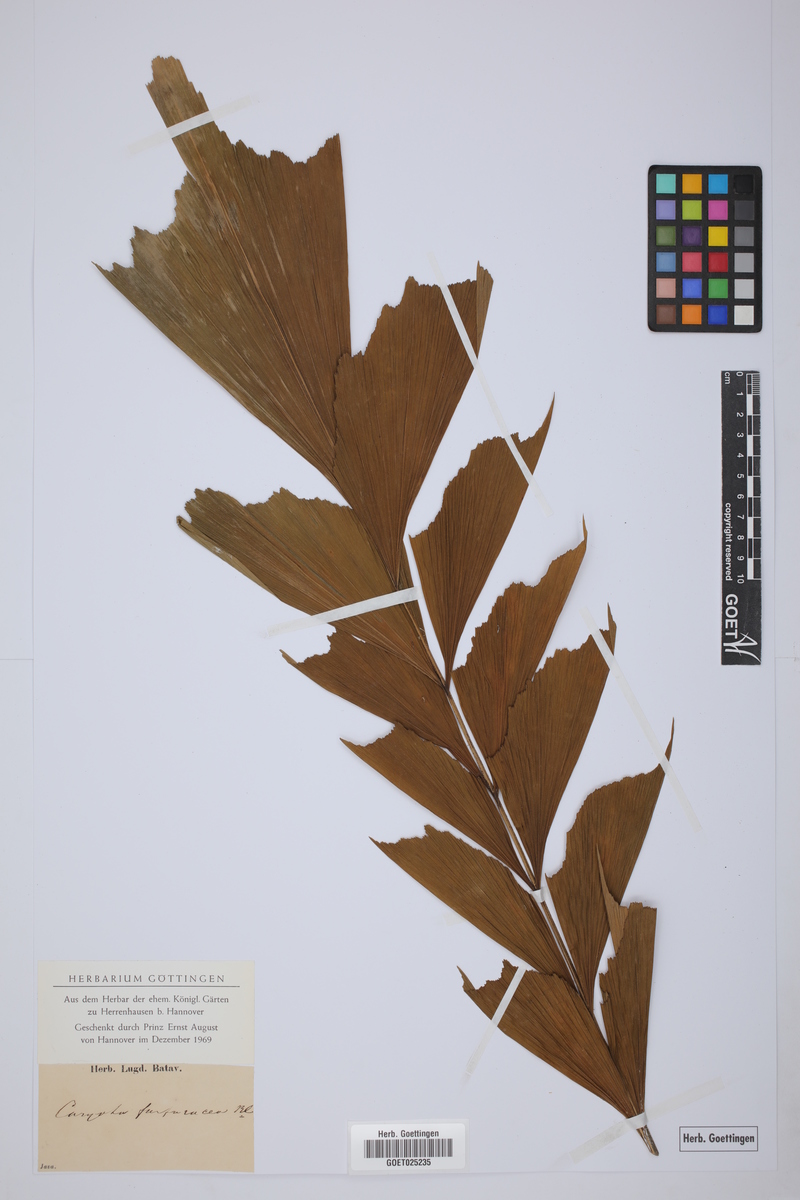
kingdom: Plantae
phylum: Tracheophyta
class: Liliopsida
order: Arecales
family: Arecaceae
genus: Caryota
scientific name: Caryota mitis
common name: Burmese fishtail palm
